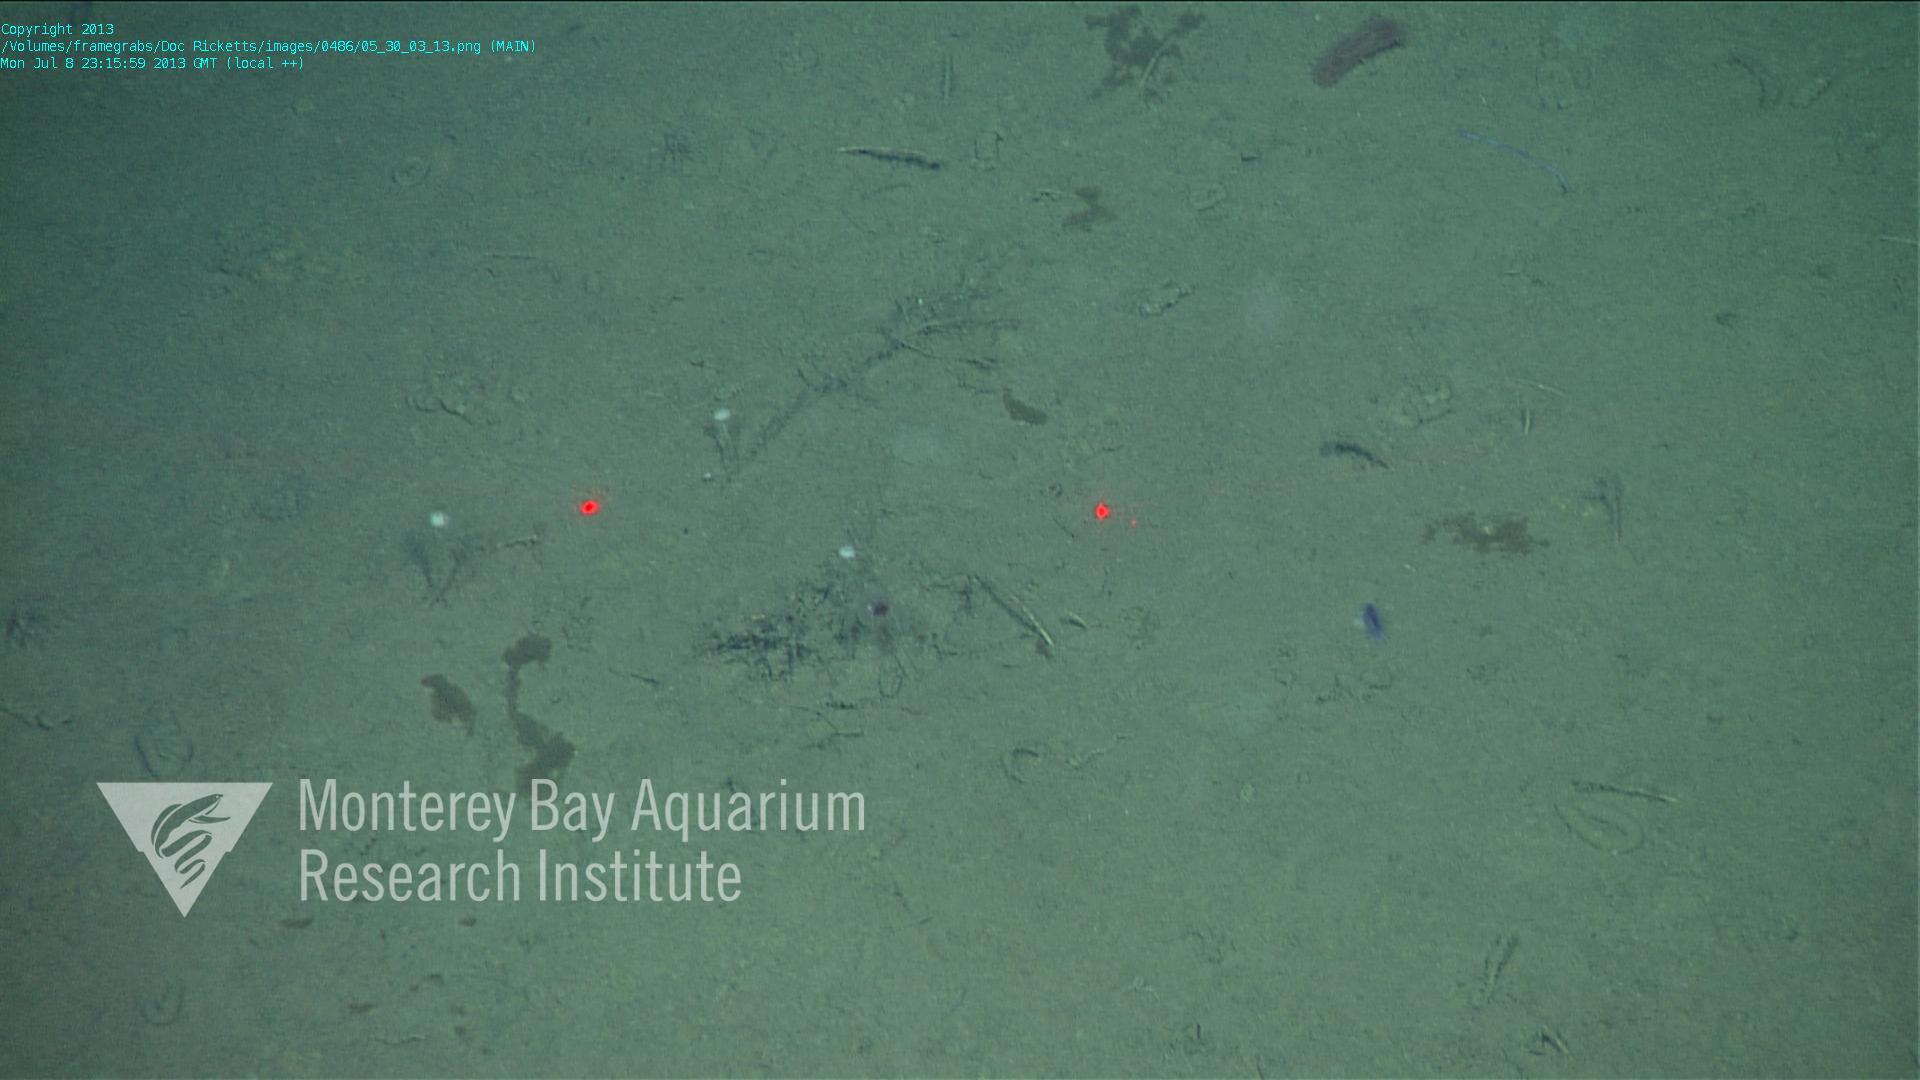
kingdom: Animalia
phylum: Porifera
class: Demospongiae
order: Poecilosclerida
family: Cladorhizidae
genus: Cladorhiza
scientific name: Cladorhiza
